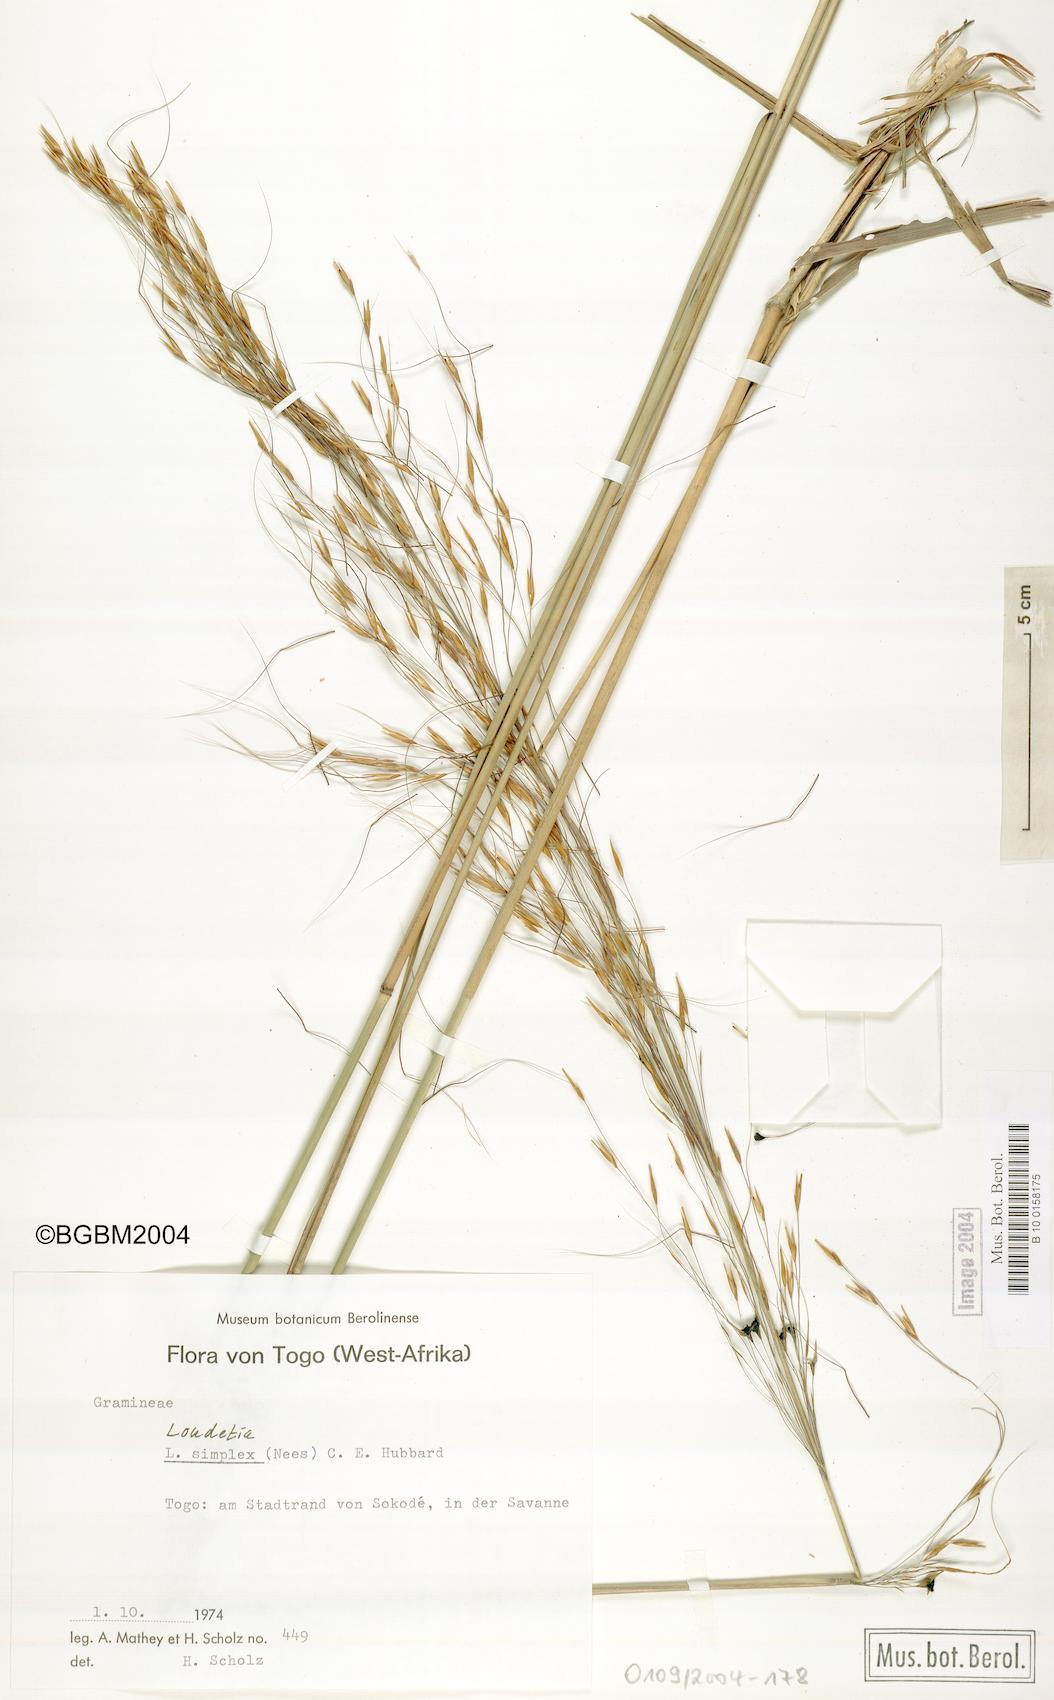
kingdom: Plantae
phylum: Tracheophyta
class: Liliopsida
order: Poales
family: Poaceae
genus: Loudetia
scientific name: Loudetia simplex
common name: Common russet grass
